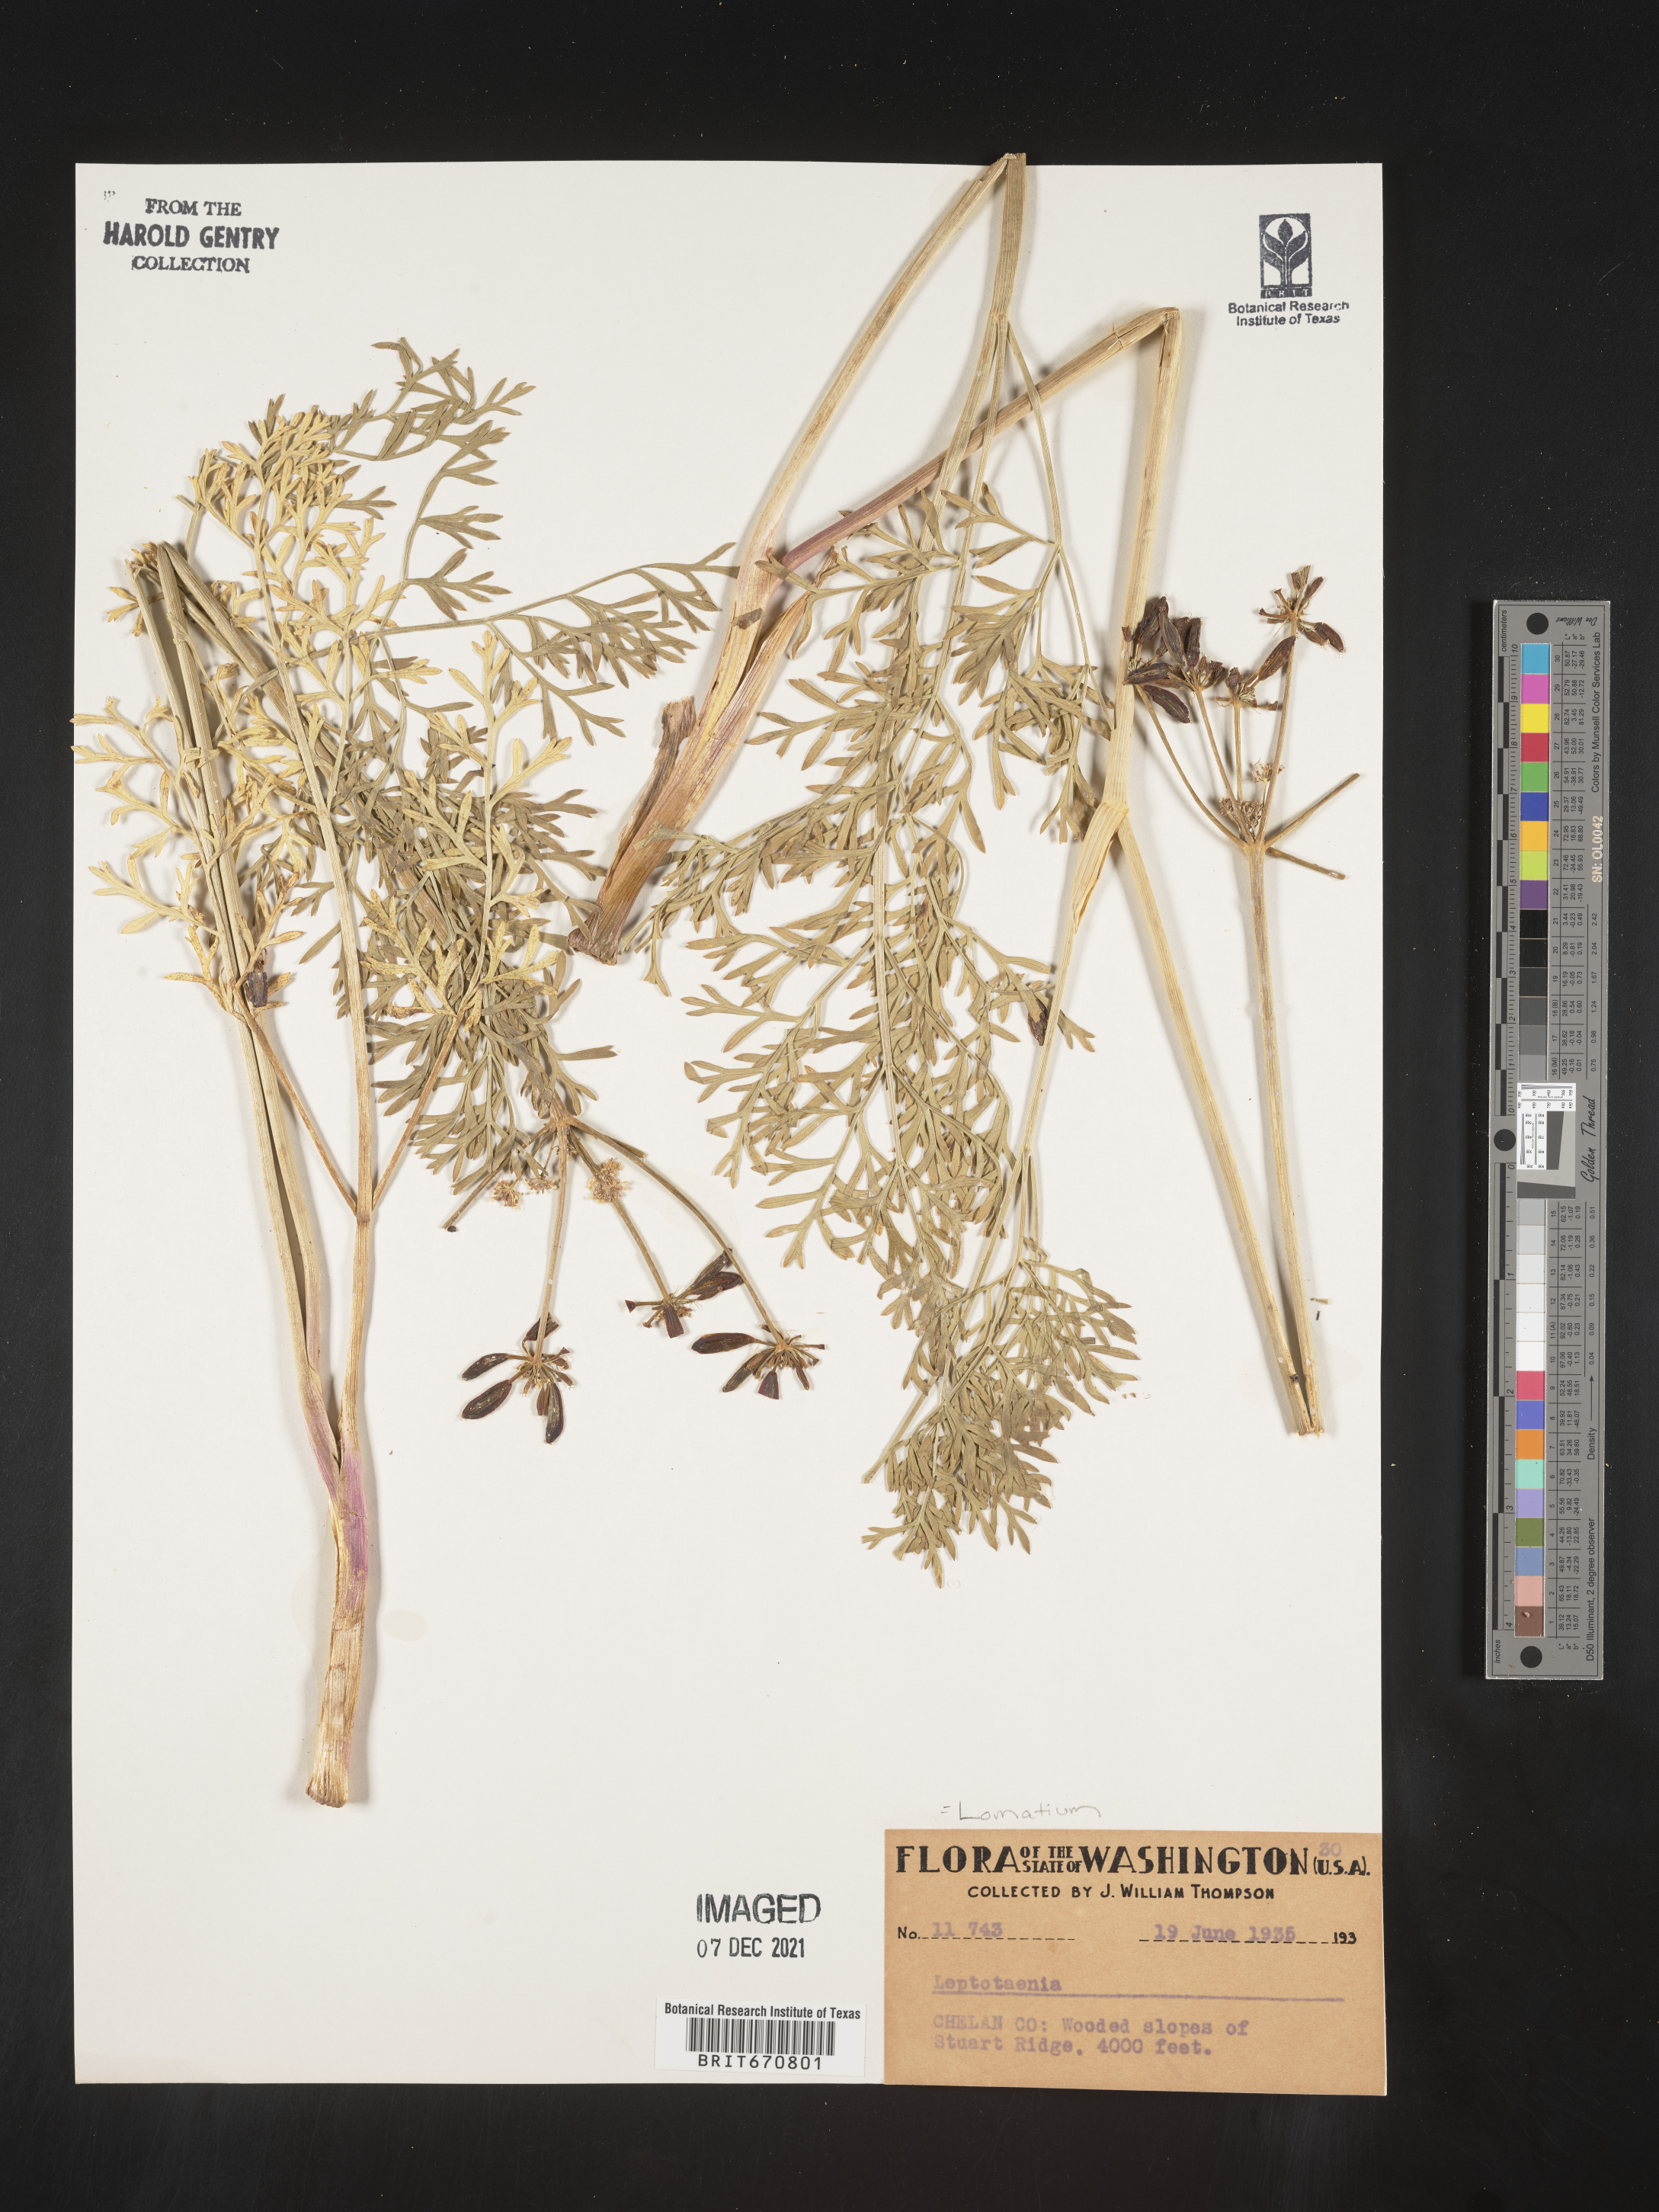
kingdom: Plantae
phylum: Tracheophyta
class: Magnoliopsida
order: Apiales
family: Apiaceae
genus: Lomatium
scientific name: Lomatium
